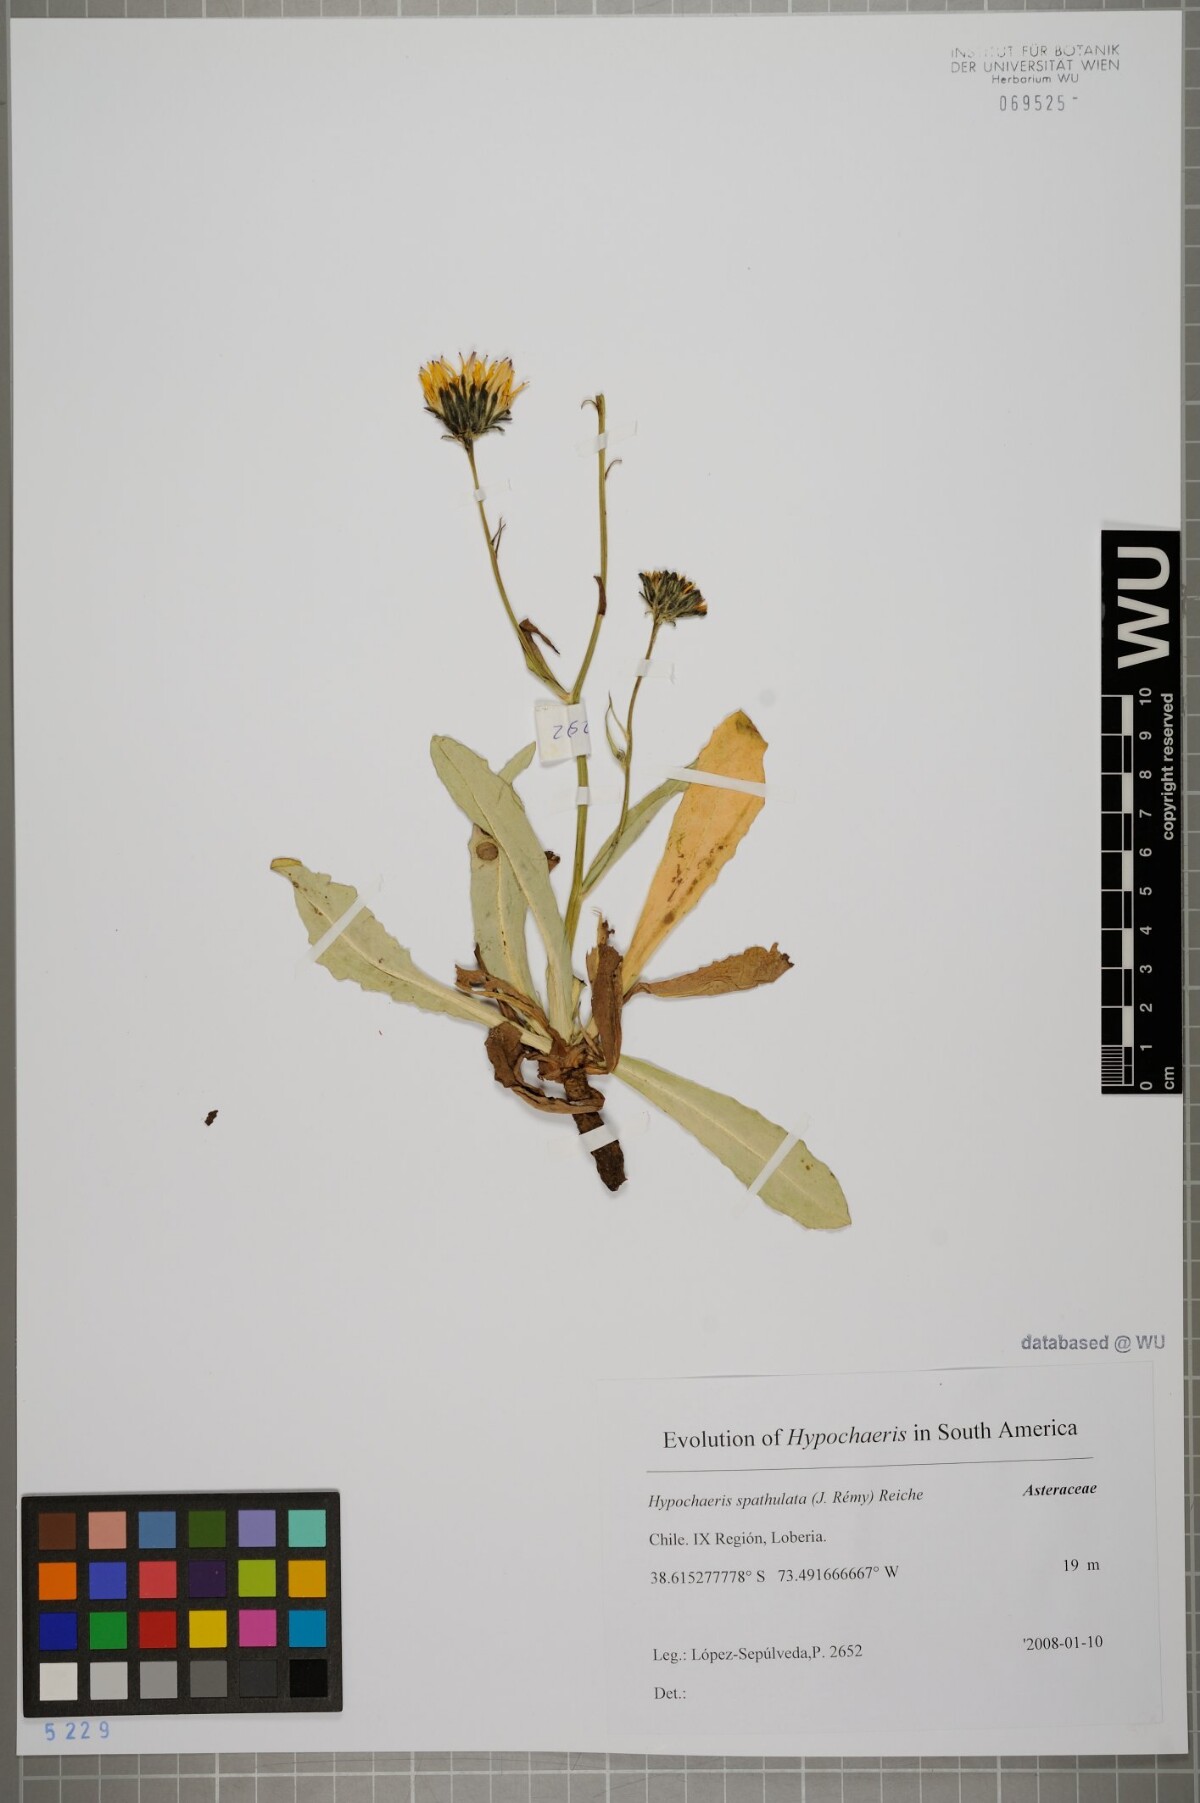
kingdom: Plantae
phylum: Tracheophyta
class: Magnoliopsida
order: Asterales
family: Asteraceae
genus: Hypochaeris
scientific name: Hypochaeris spathulata
